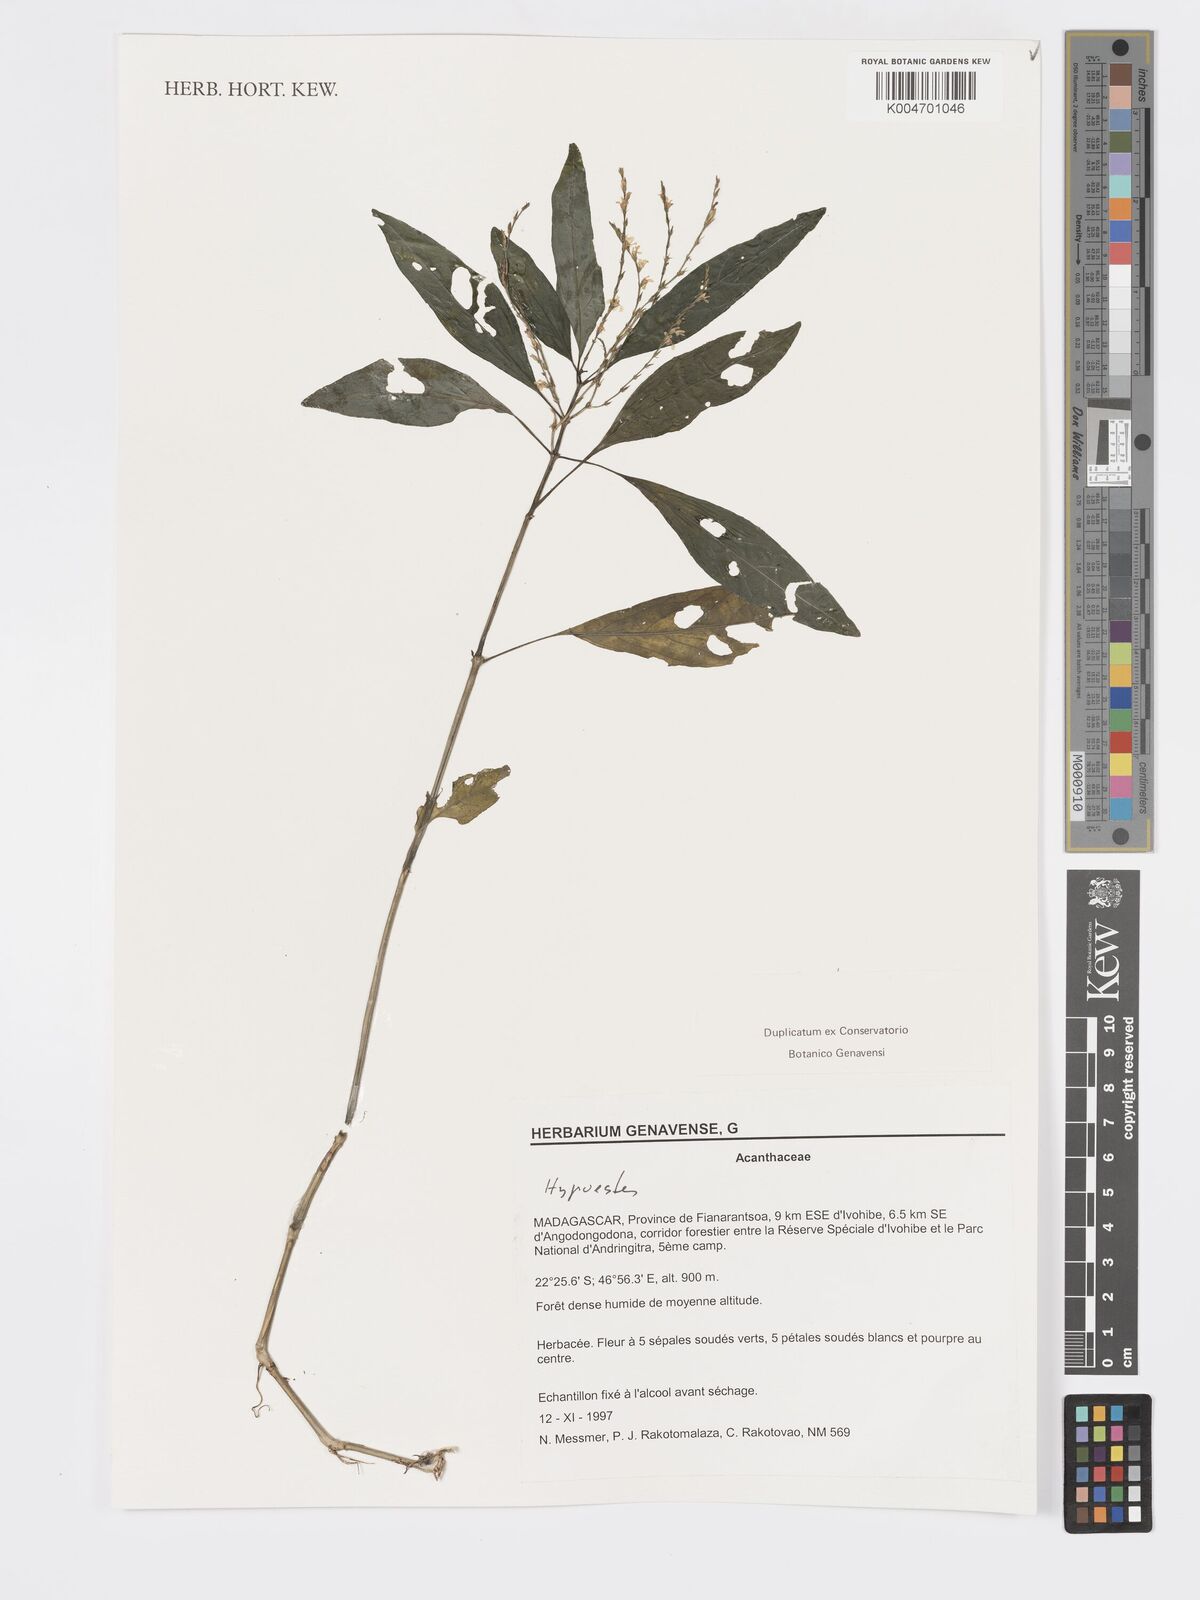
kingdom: Plantae
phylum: Tracheophyta
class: Magnoliopsida
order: Lamiales
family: Acanthaceae
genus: Hypoestes
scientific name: Hypoestes
